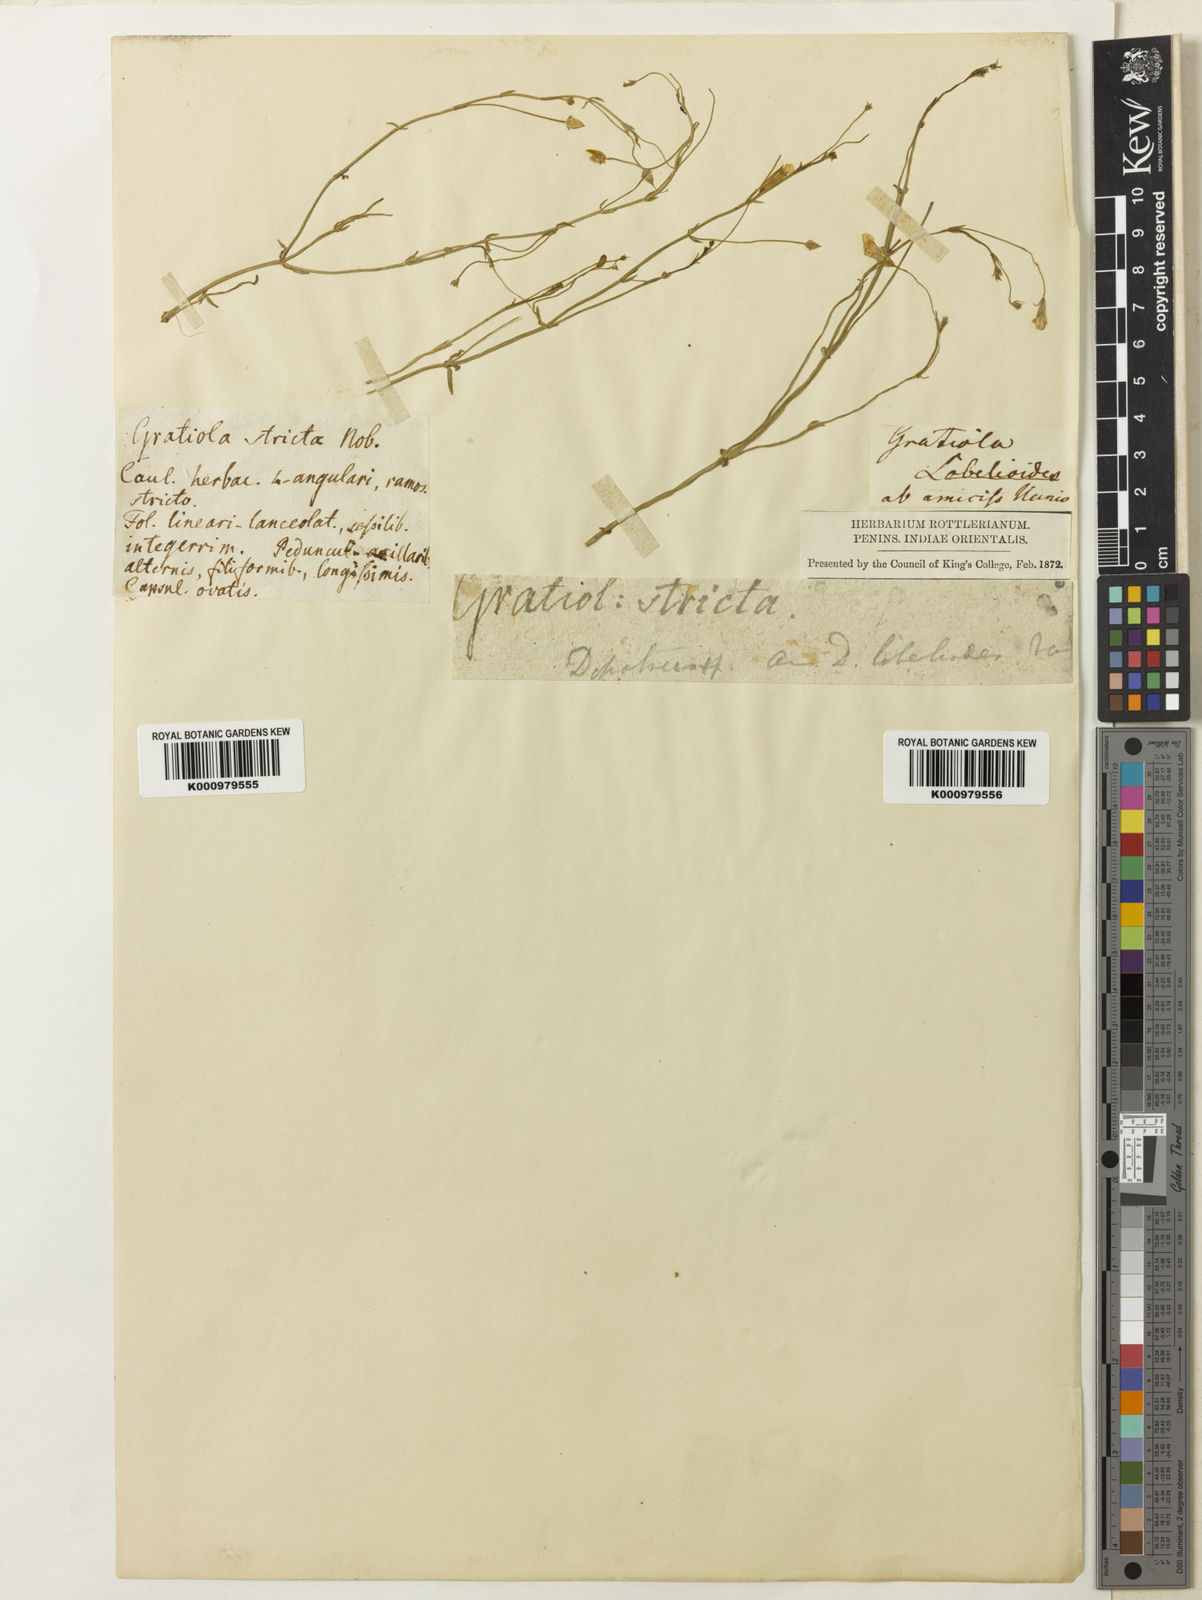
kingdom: Plantae
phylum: Tracheophyta
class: Magnoliopsida
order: Lamiales
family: Plantaginaceae
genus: Dopatrium
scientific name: Dopatrium lobelioides
